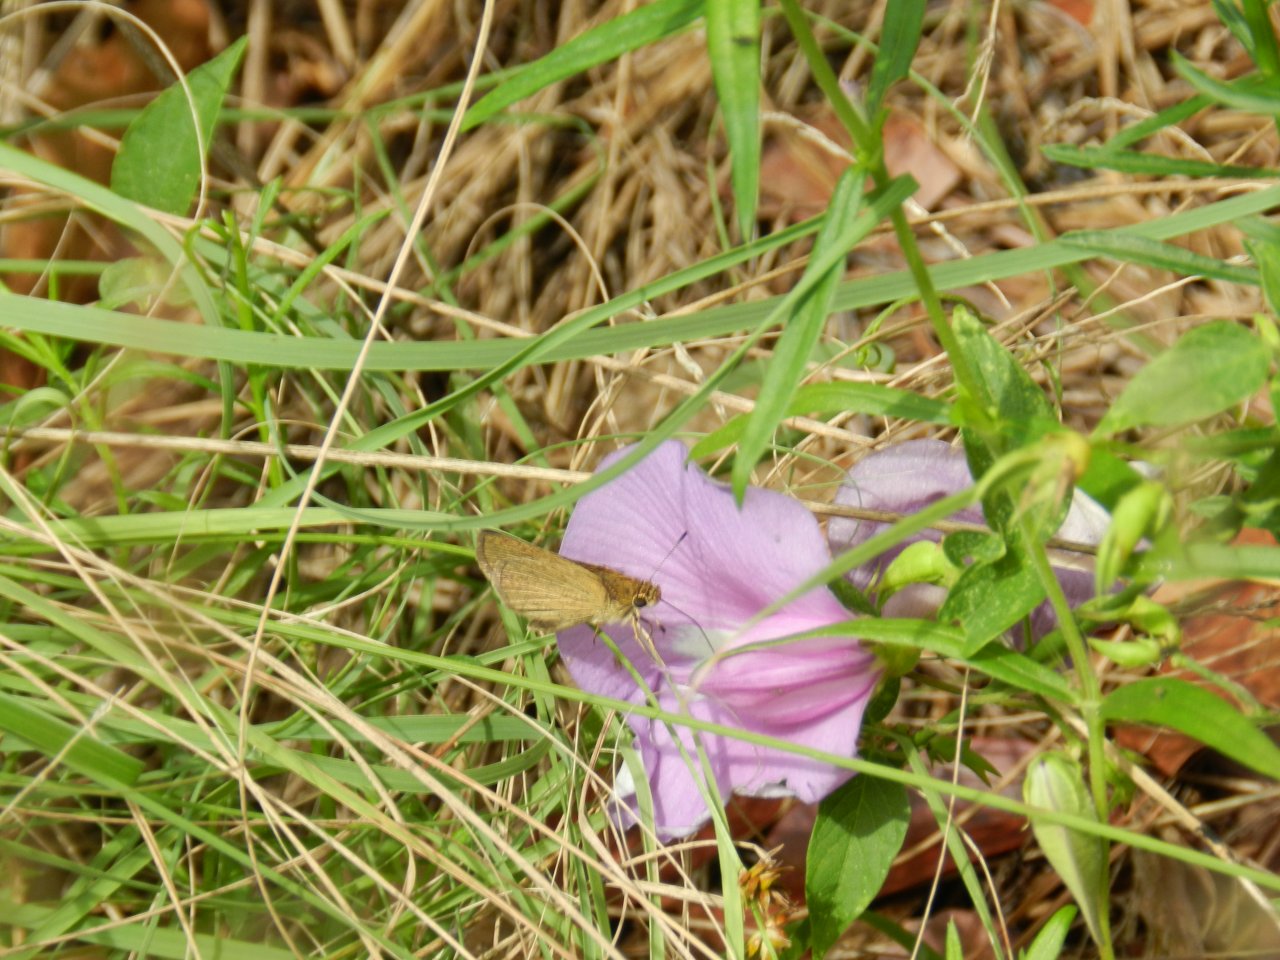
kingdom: Animalia
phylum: Arthropoda
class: Insecta
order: Lepidoptera
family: Hesperiidae
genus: Nastra
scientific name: Nastra lherminier
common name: Swarthy Skipper
